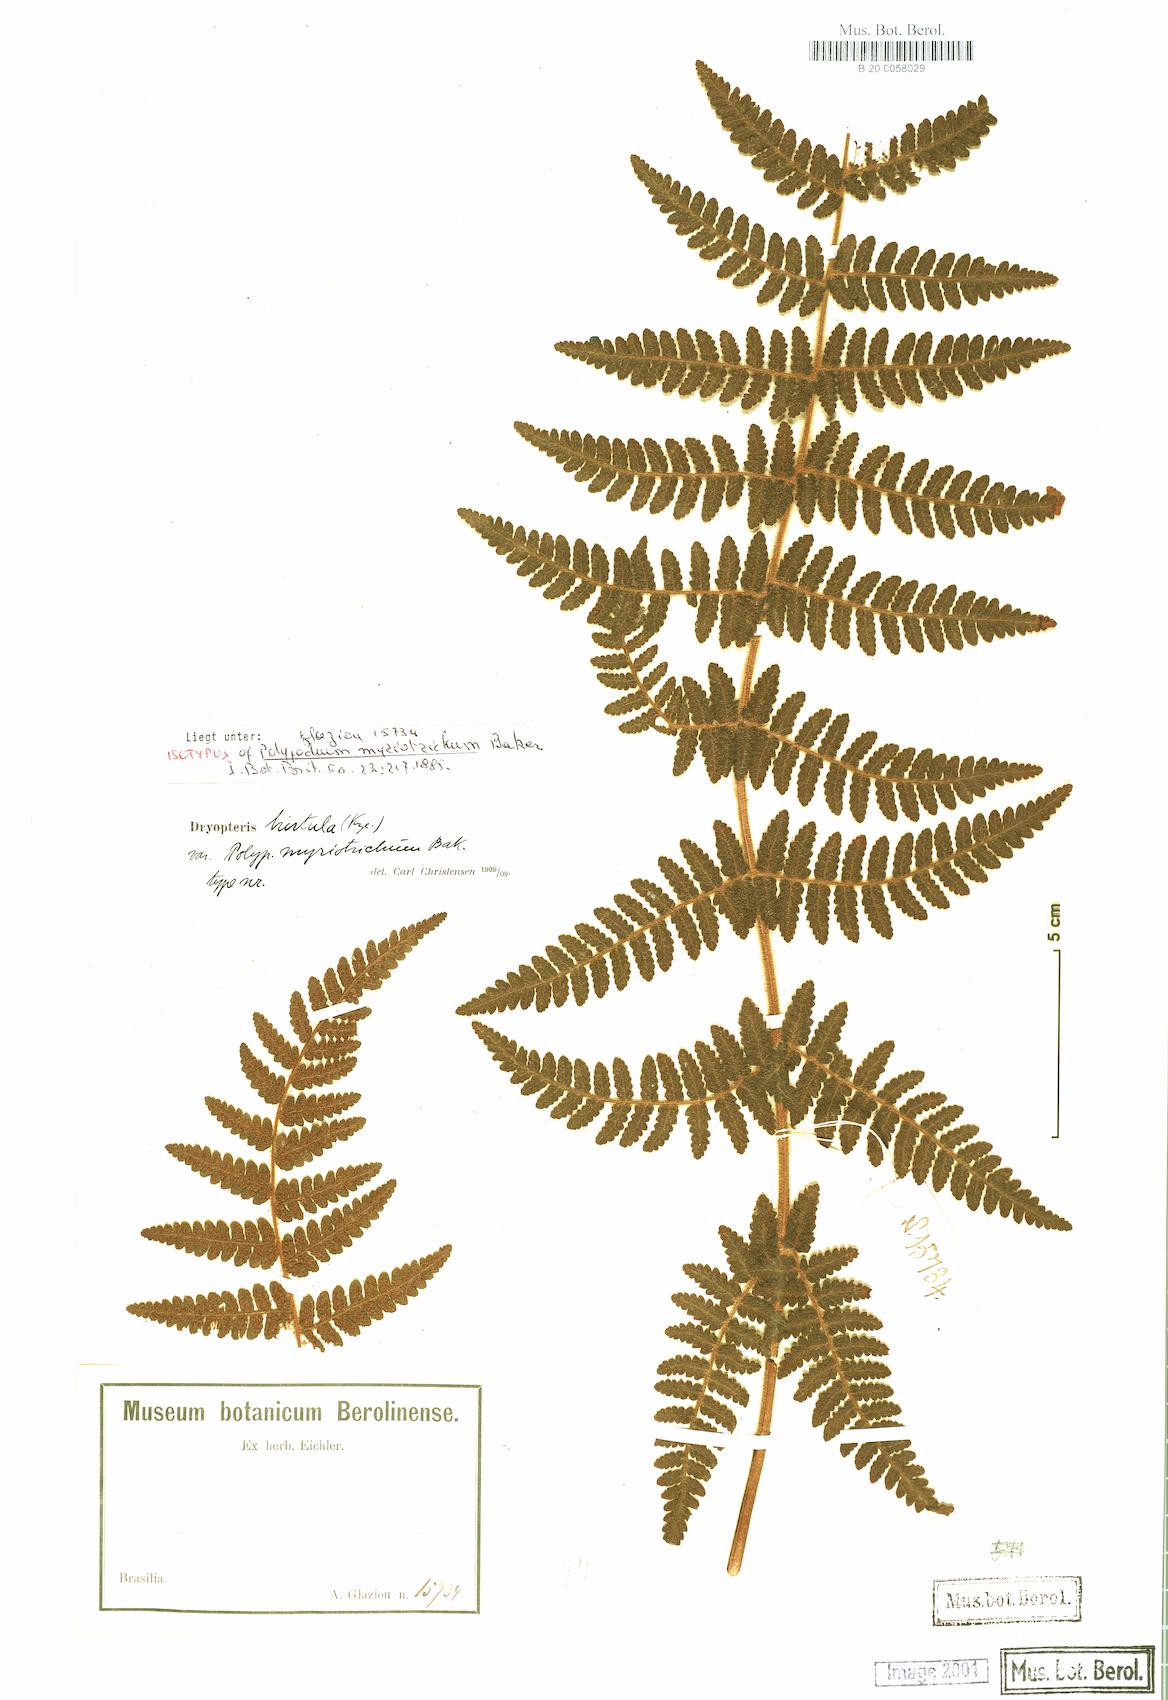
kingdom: Plantae
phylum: Tracheophyta
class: Polypodiopsida
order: Cyatheales
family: Cyatheaceae
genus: Cyathea
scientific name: Cyathea myriotricha
